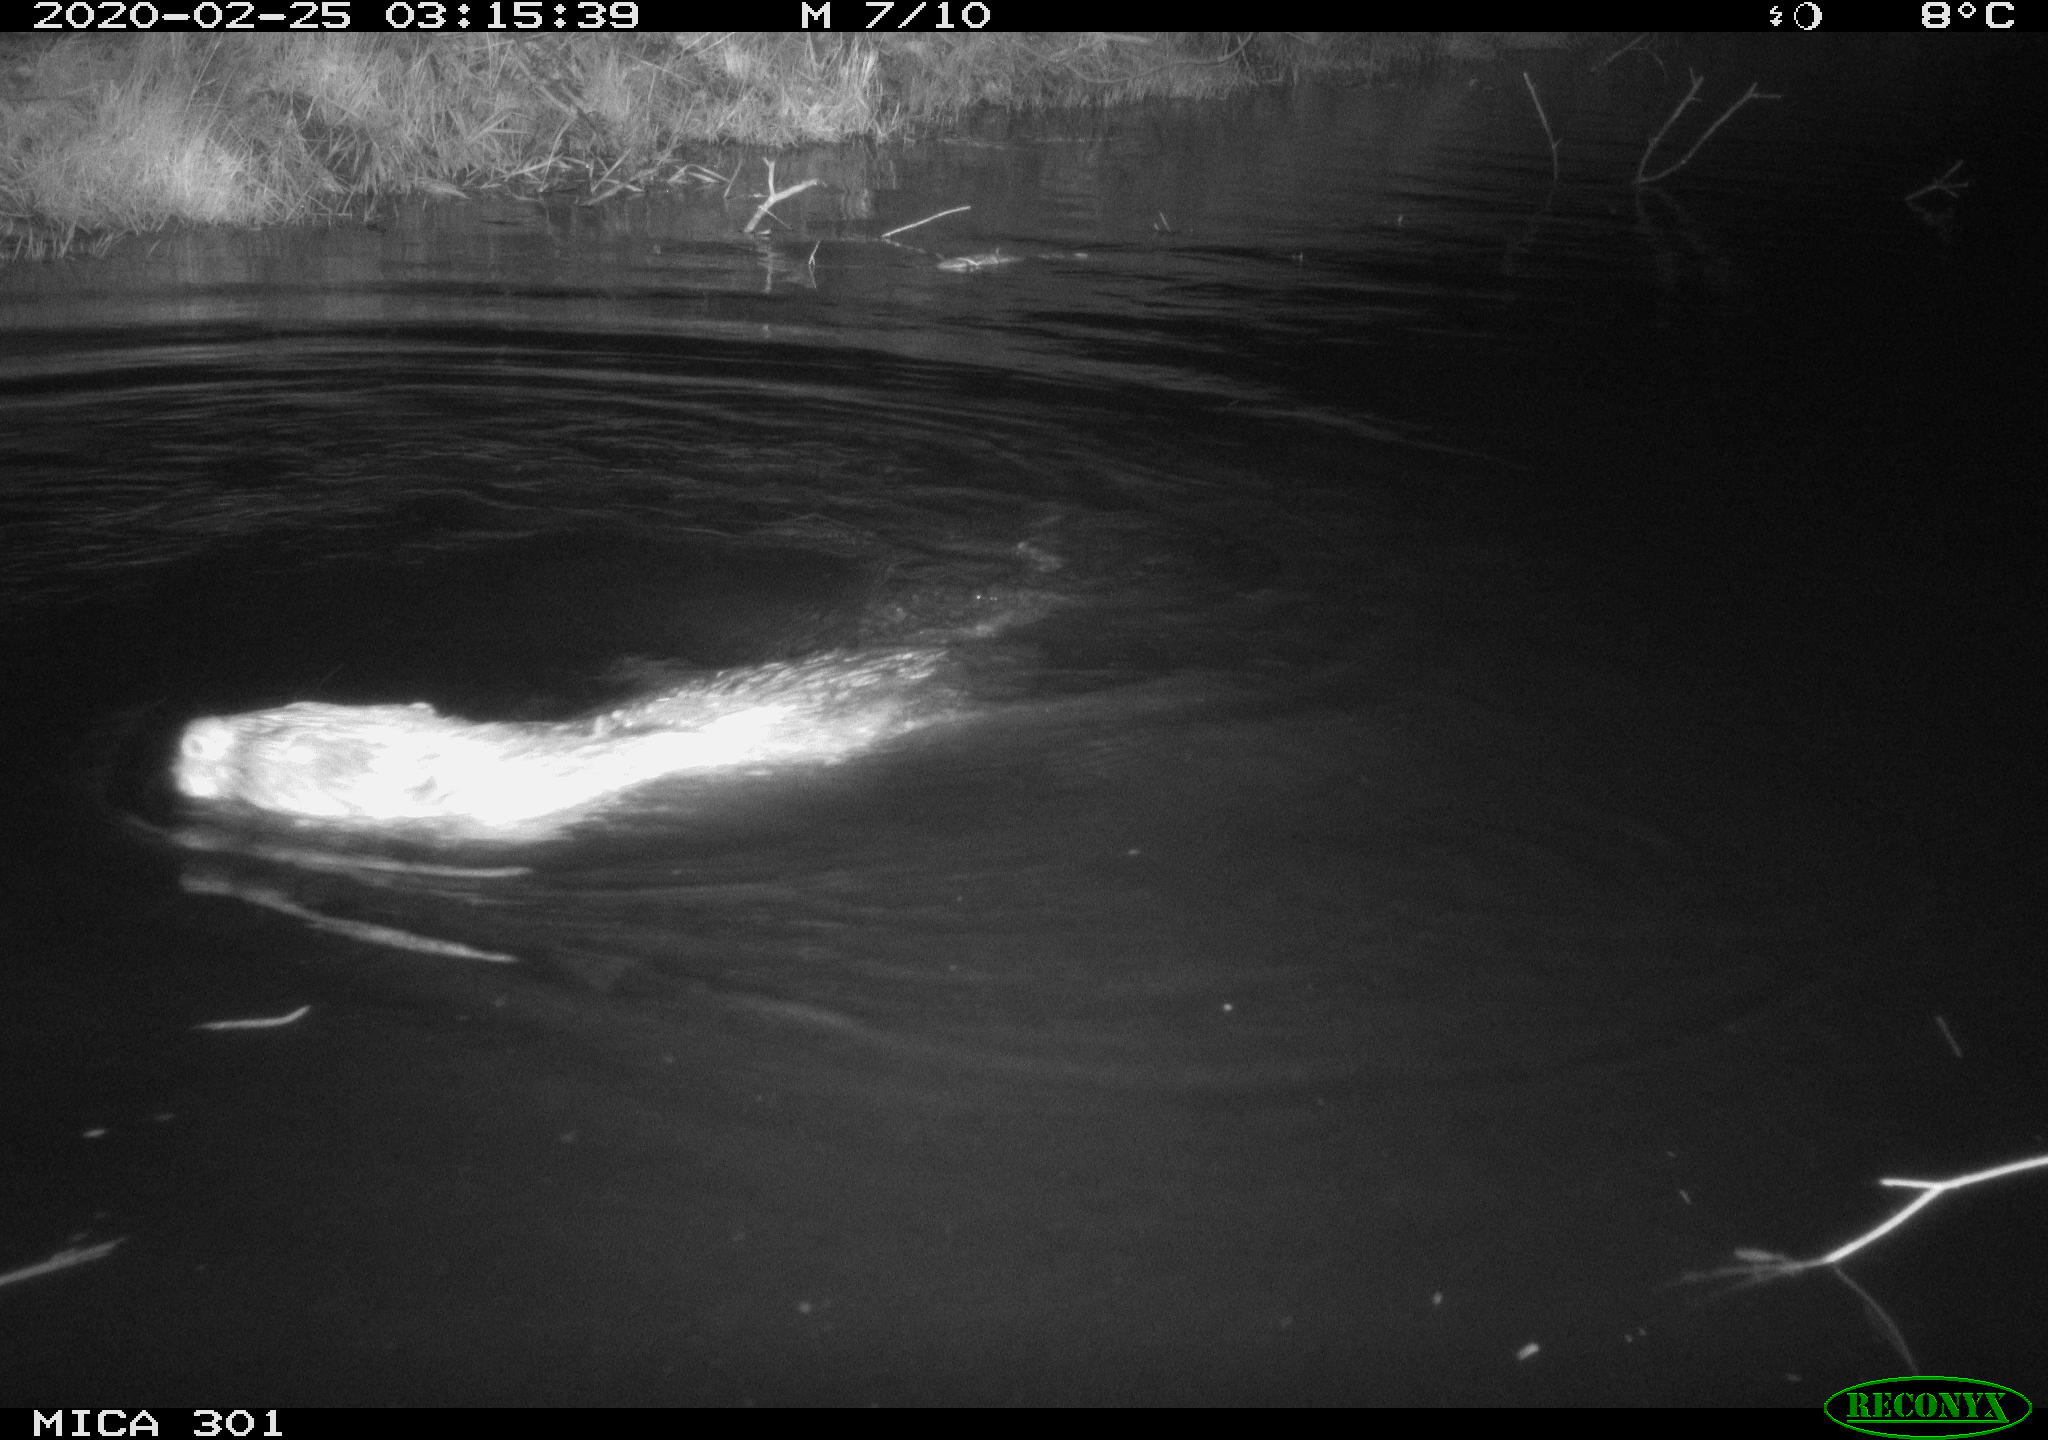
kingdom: Animalia
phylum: Chordata
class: Mammalia
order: Rodentia
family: Castoridae
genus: Castor
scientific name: Castor fiber
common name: Eurasian beaver
